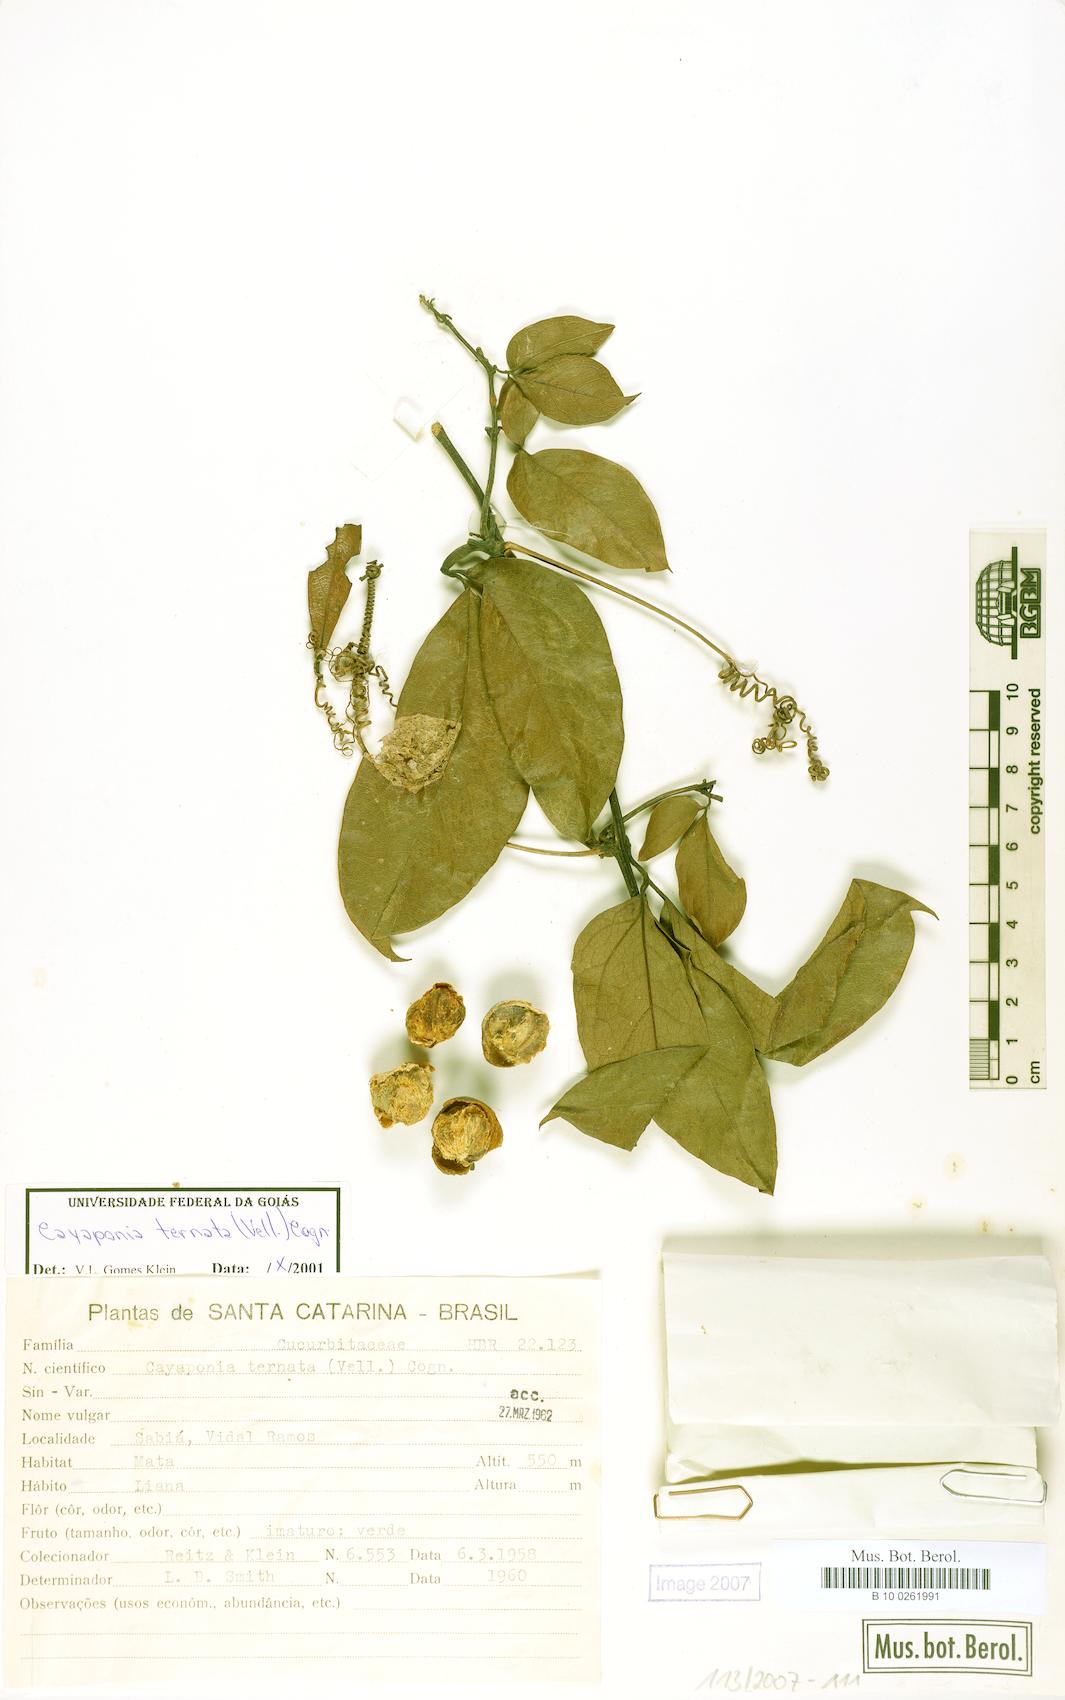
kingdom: Plantae
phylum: Tracheophyta
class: Magnoliopsida
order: Cucurbitales
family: Cucurbitaceae
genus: Cayaponia
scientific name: Cayaponia ternata
